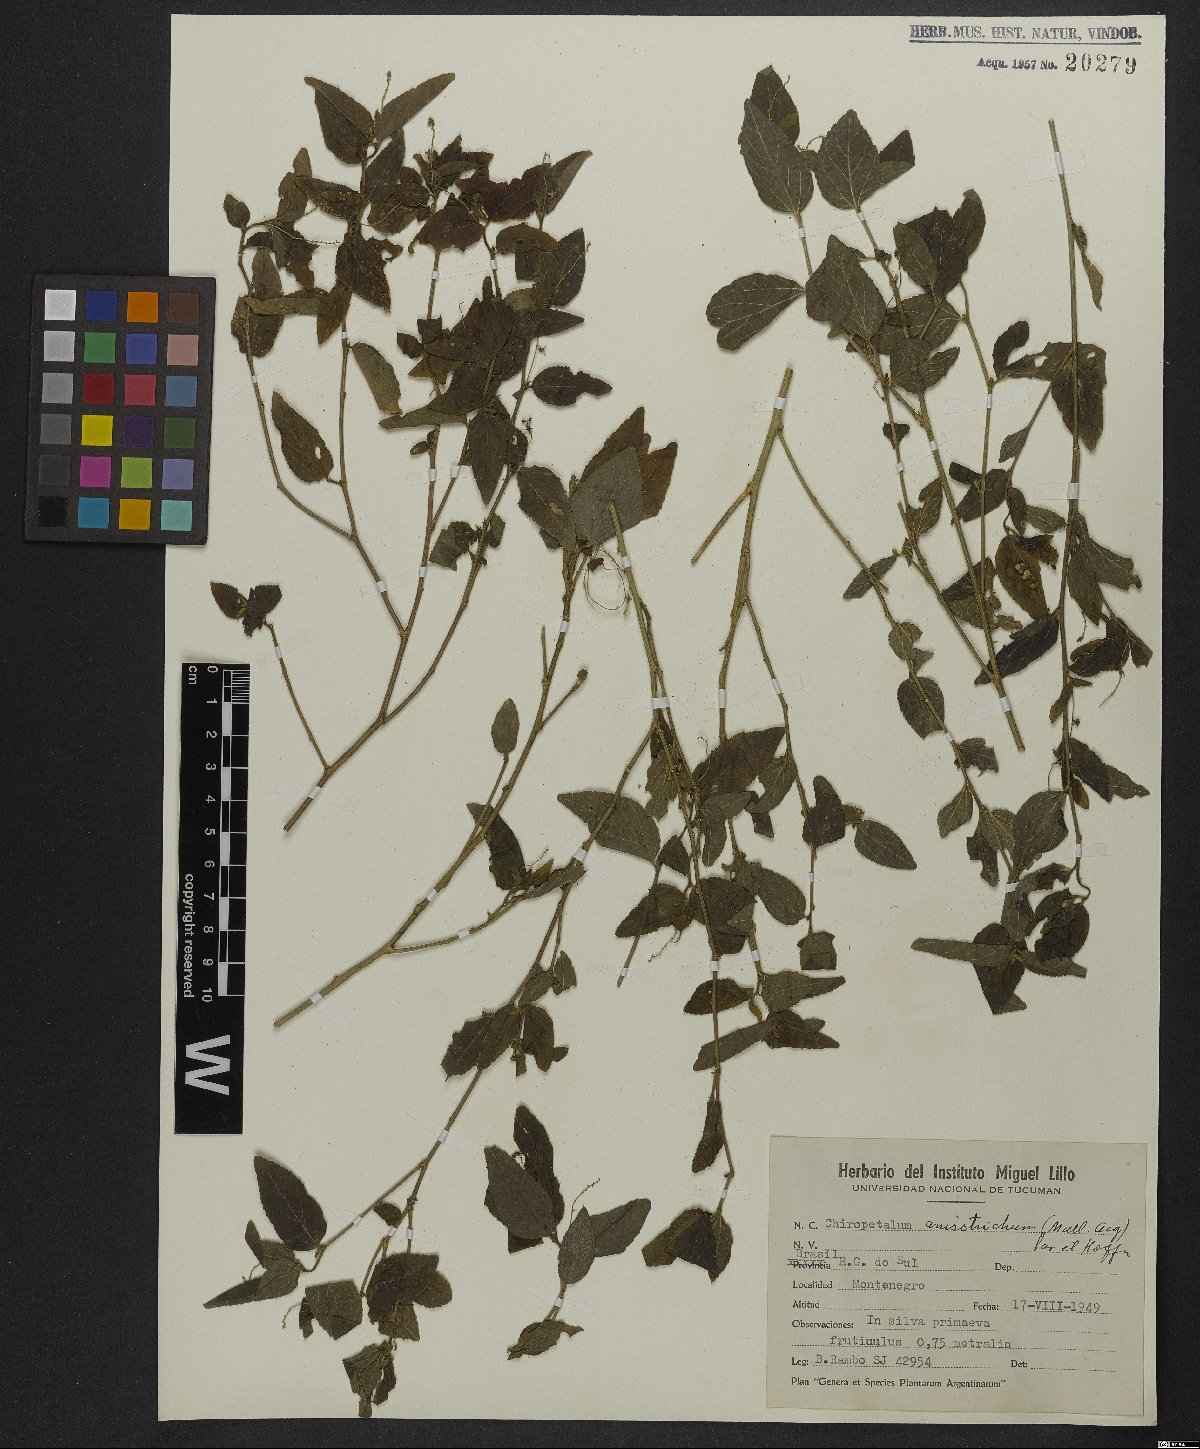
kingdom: Plantae
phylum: Tracheophyta
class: Magnoliopsida
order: Malpighiales
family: Euphorbiaceae
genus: Chiropetalum
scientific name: Chiropetalum anisotrichum
